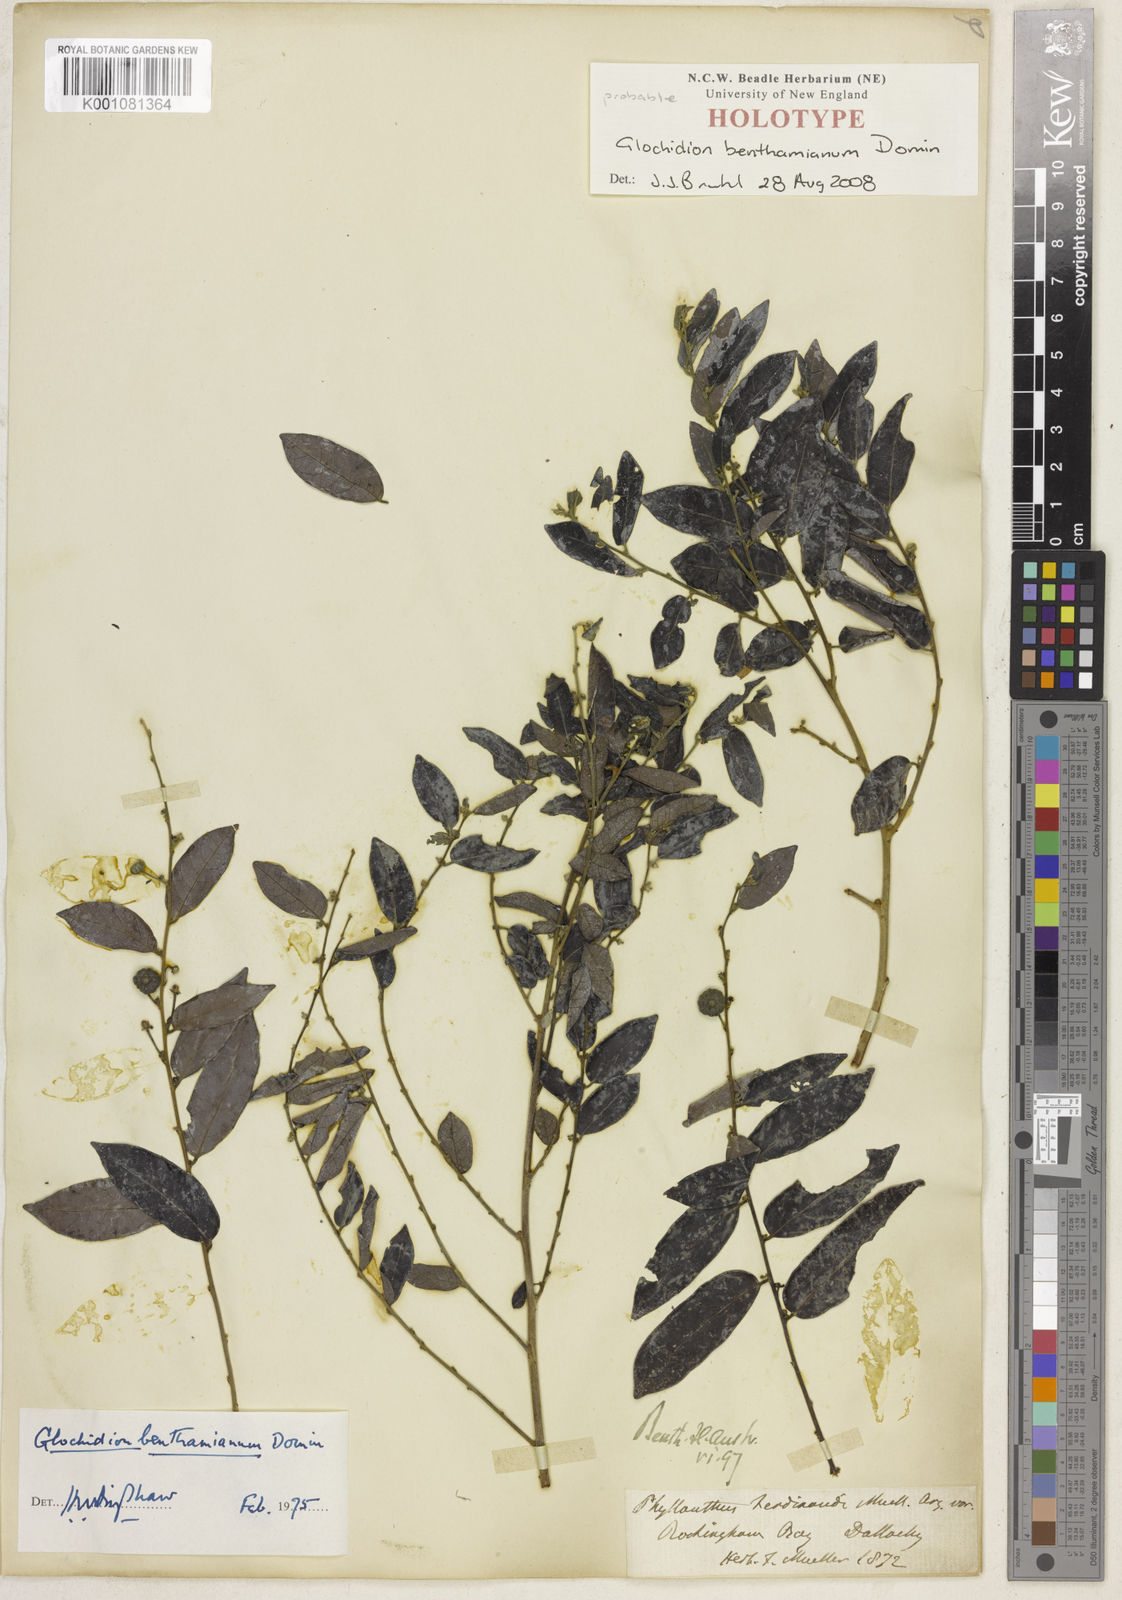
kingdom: Plantae
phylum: Tracheophyta
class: Magnoliopsida
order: Malpighiales
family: Phyllanthaceae
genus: Glochidion
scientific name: Glochidion benthamianum
